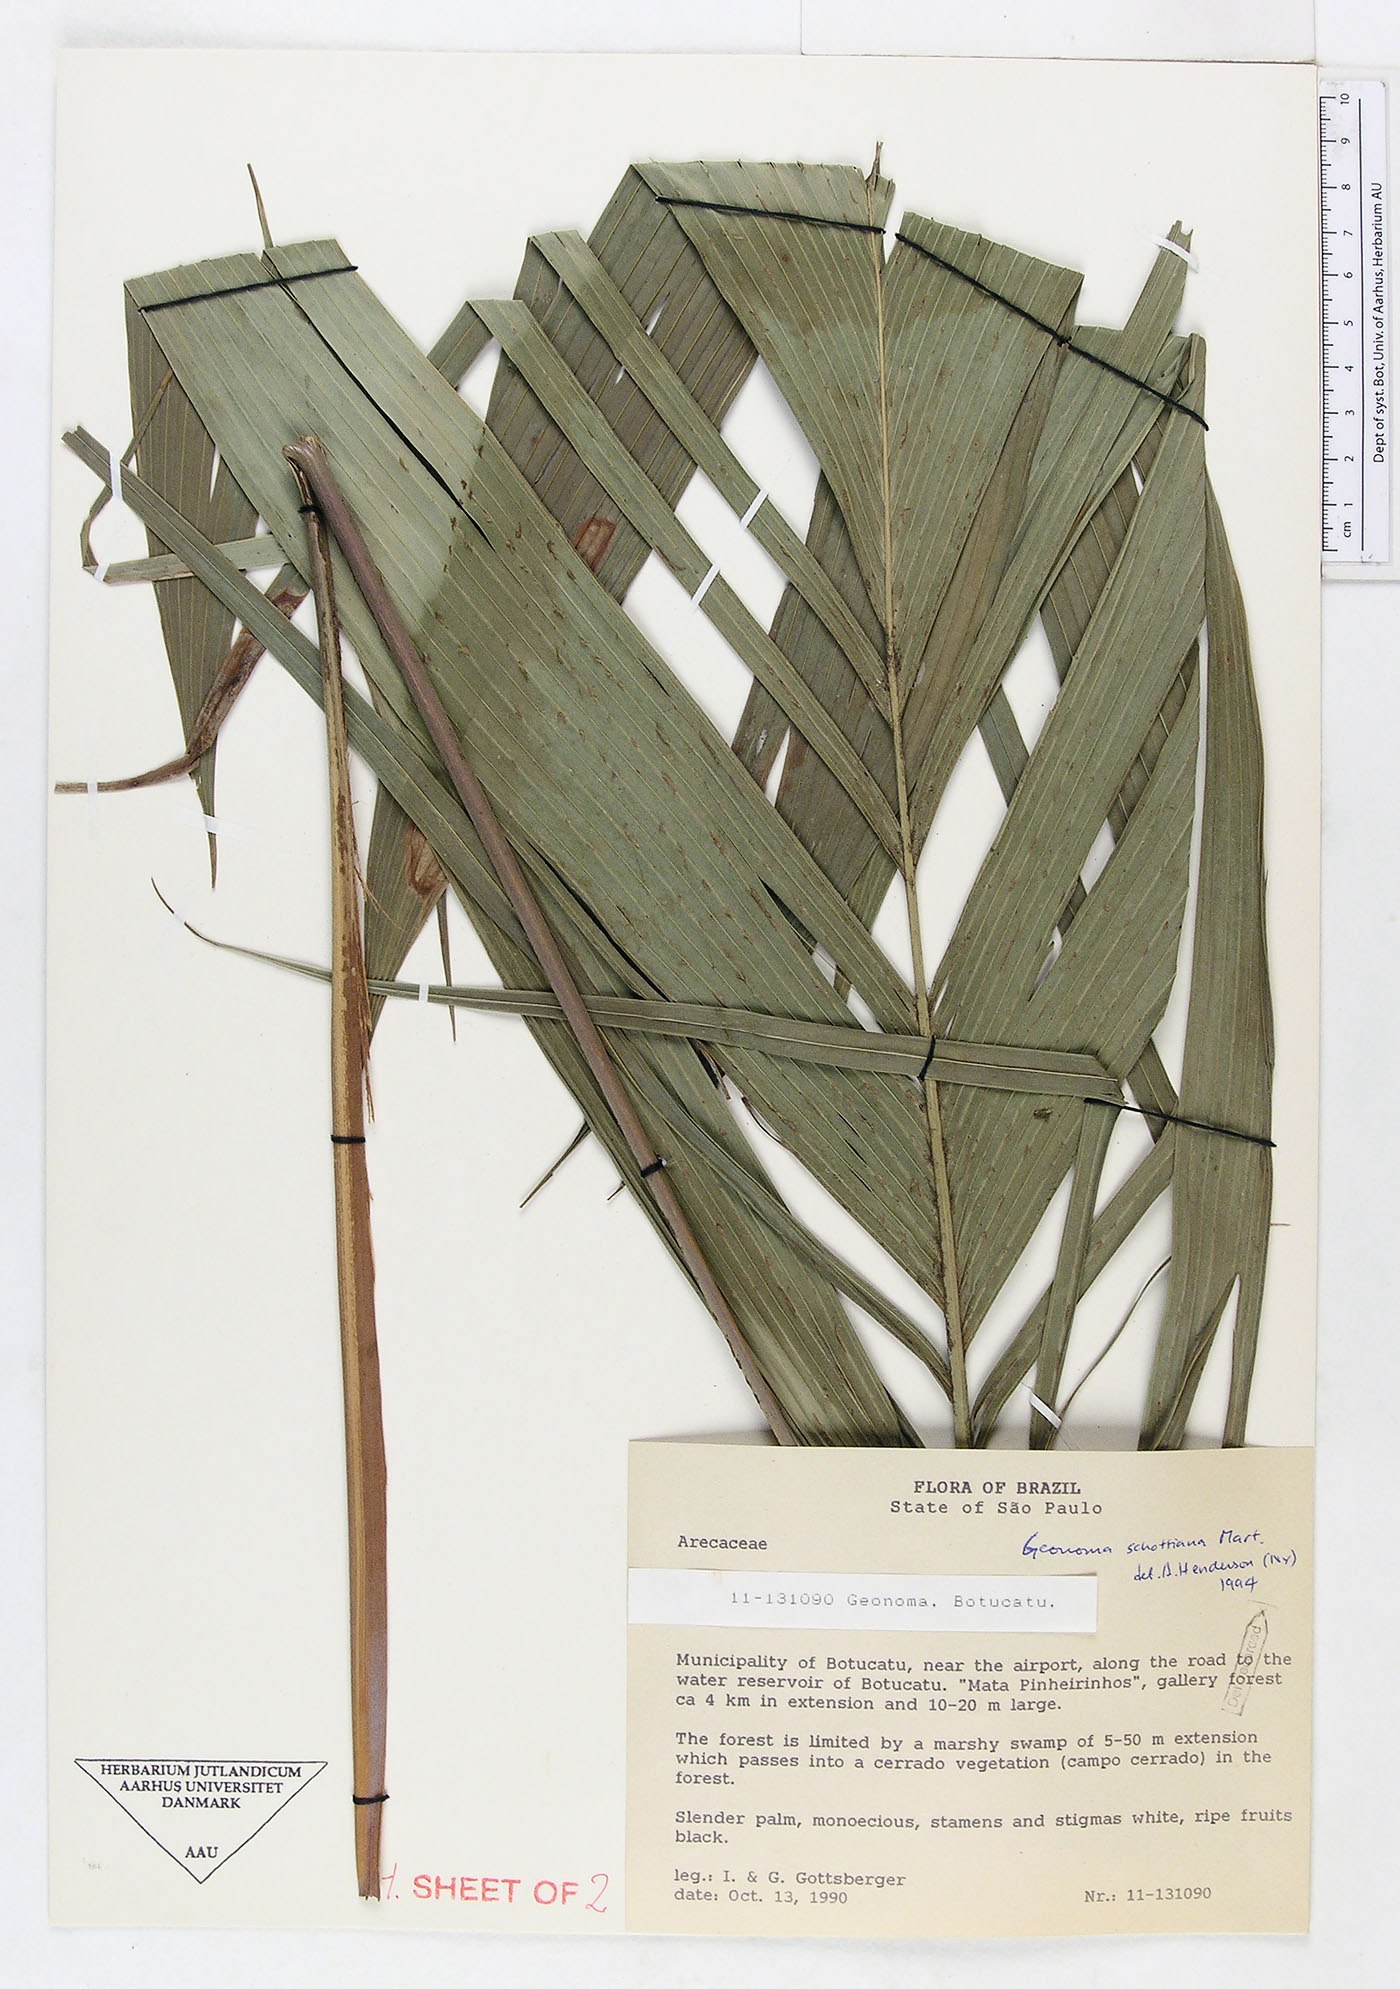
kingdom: Plantae
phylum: Tracheophyta
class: Liliopsida
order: Arecales
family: Arecaceae
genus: Geonoma
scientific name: Geonoma schottiana
